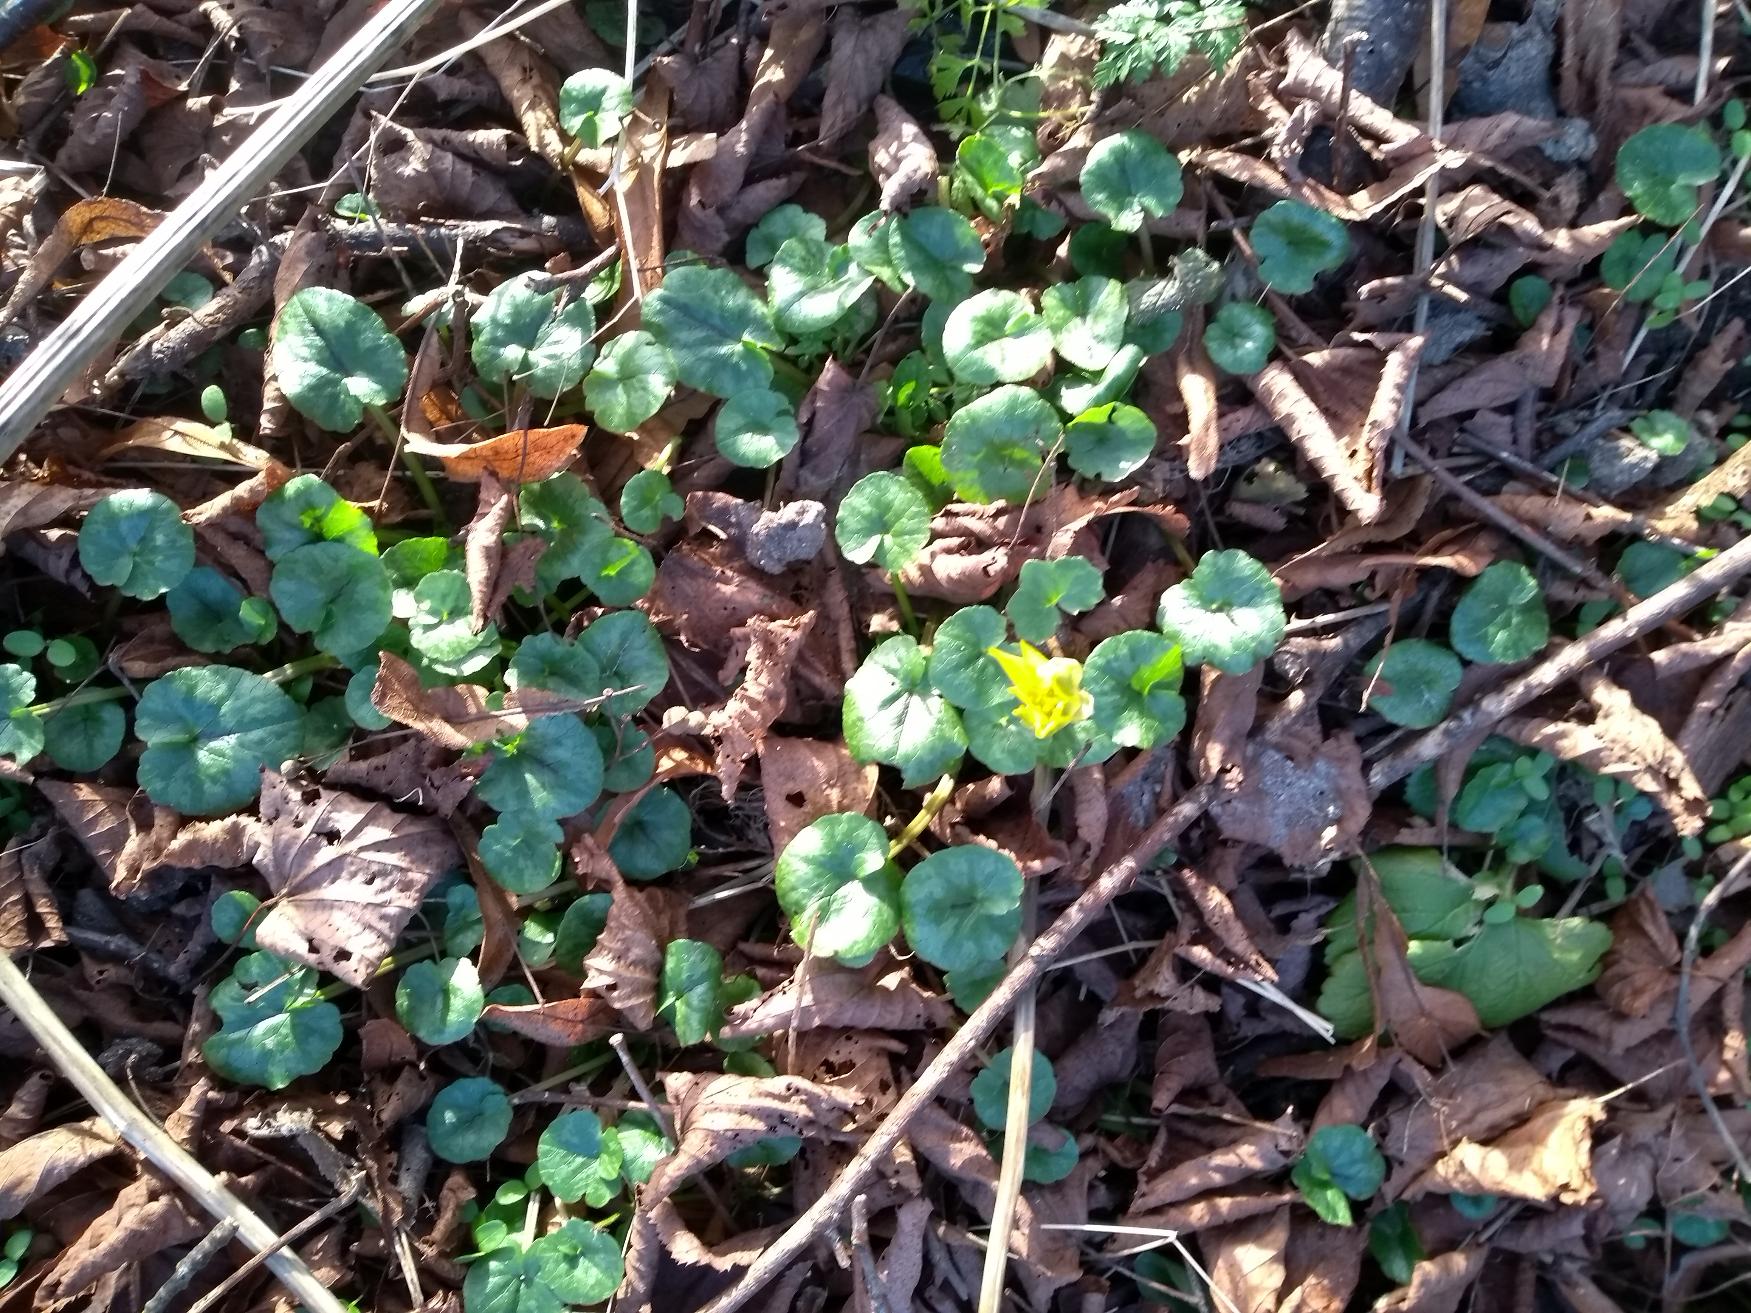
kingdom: Plantae
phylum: Tracheophyta
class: Magnoliopsida
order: Ranunculales
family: Ranunculaceae
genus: Ficaria
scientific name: Ficaria verna
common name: Vorterod
